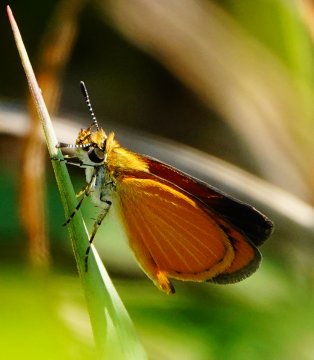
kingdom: Animalia
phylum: Arthropoda
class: Insecta
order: Lepidoptera
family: Hesperiidae
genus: Ancyloxypha
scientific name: Ancyloxypha numitor
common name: Least Skipper
